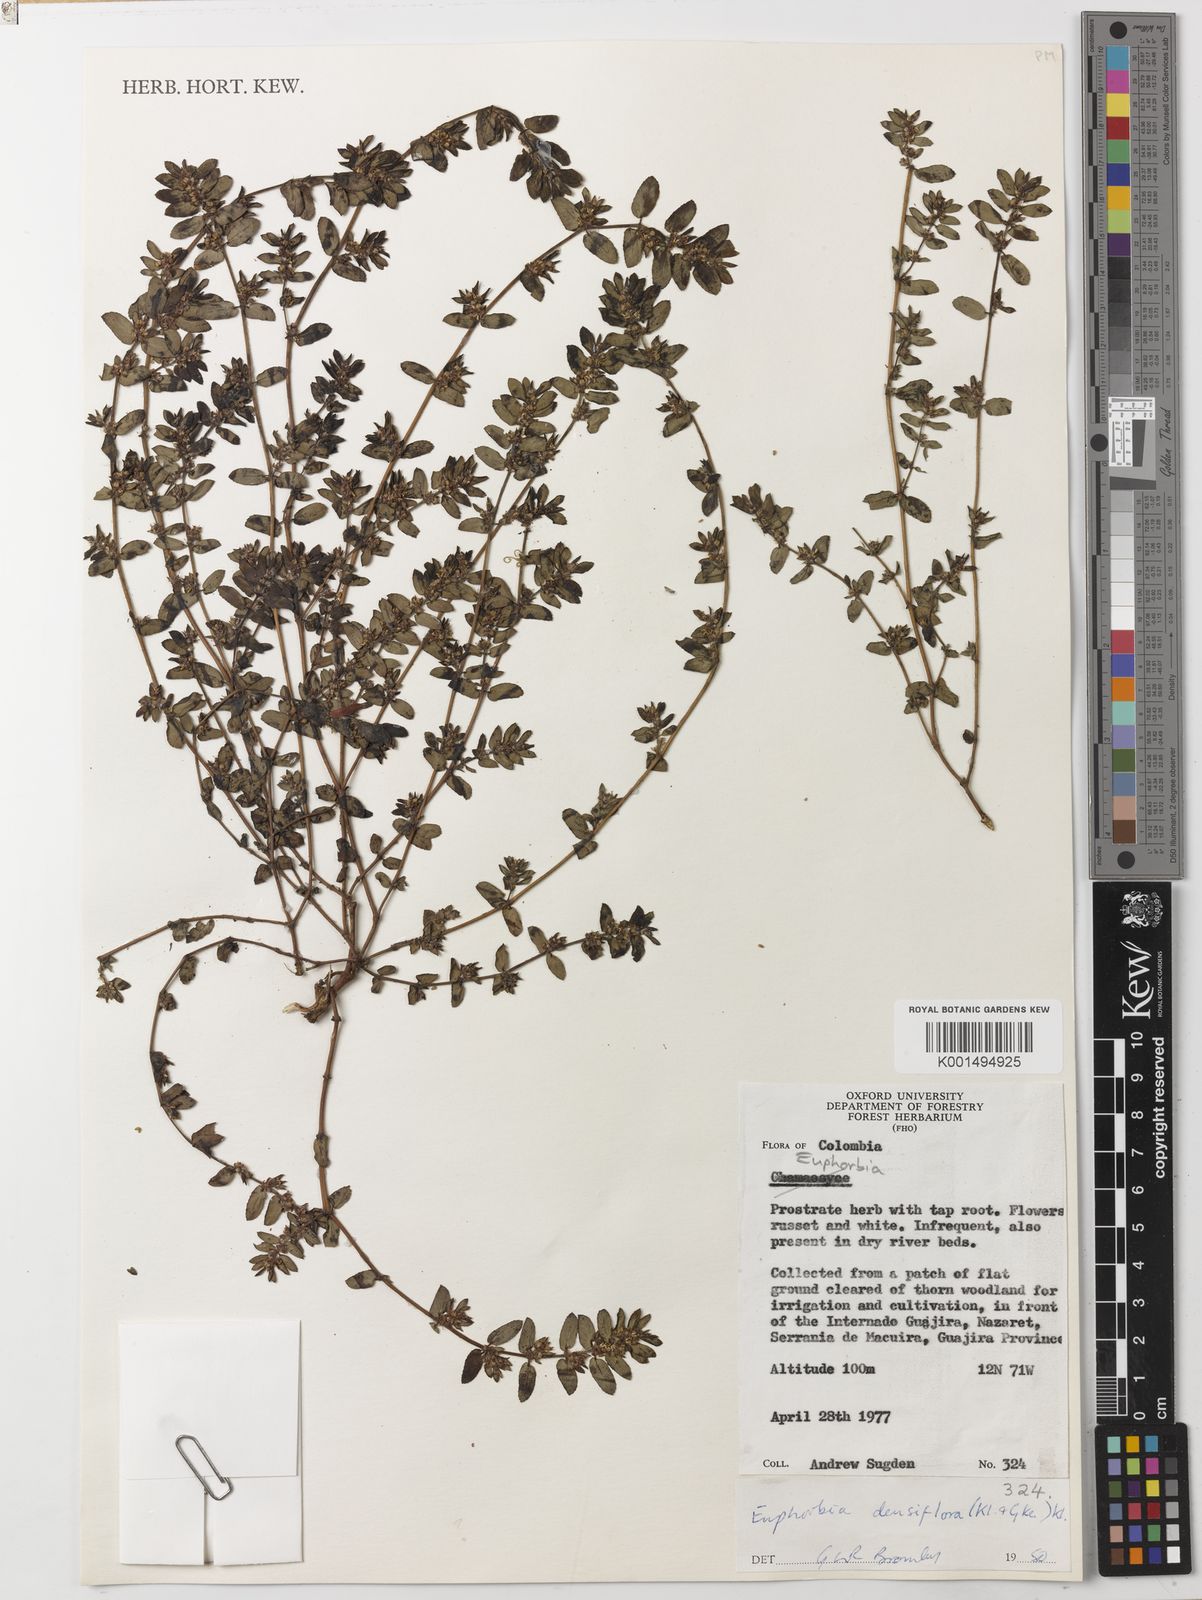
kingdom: Plantae
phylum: Tracheophyta
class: Magnoliopsida
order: Malpighiales
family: Euphorbiaceae
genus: Euphorbia
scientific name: Euphorbia densiflora
